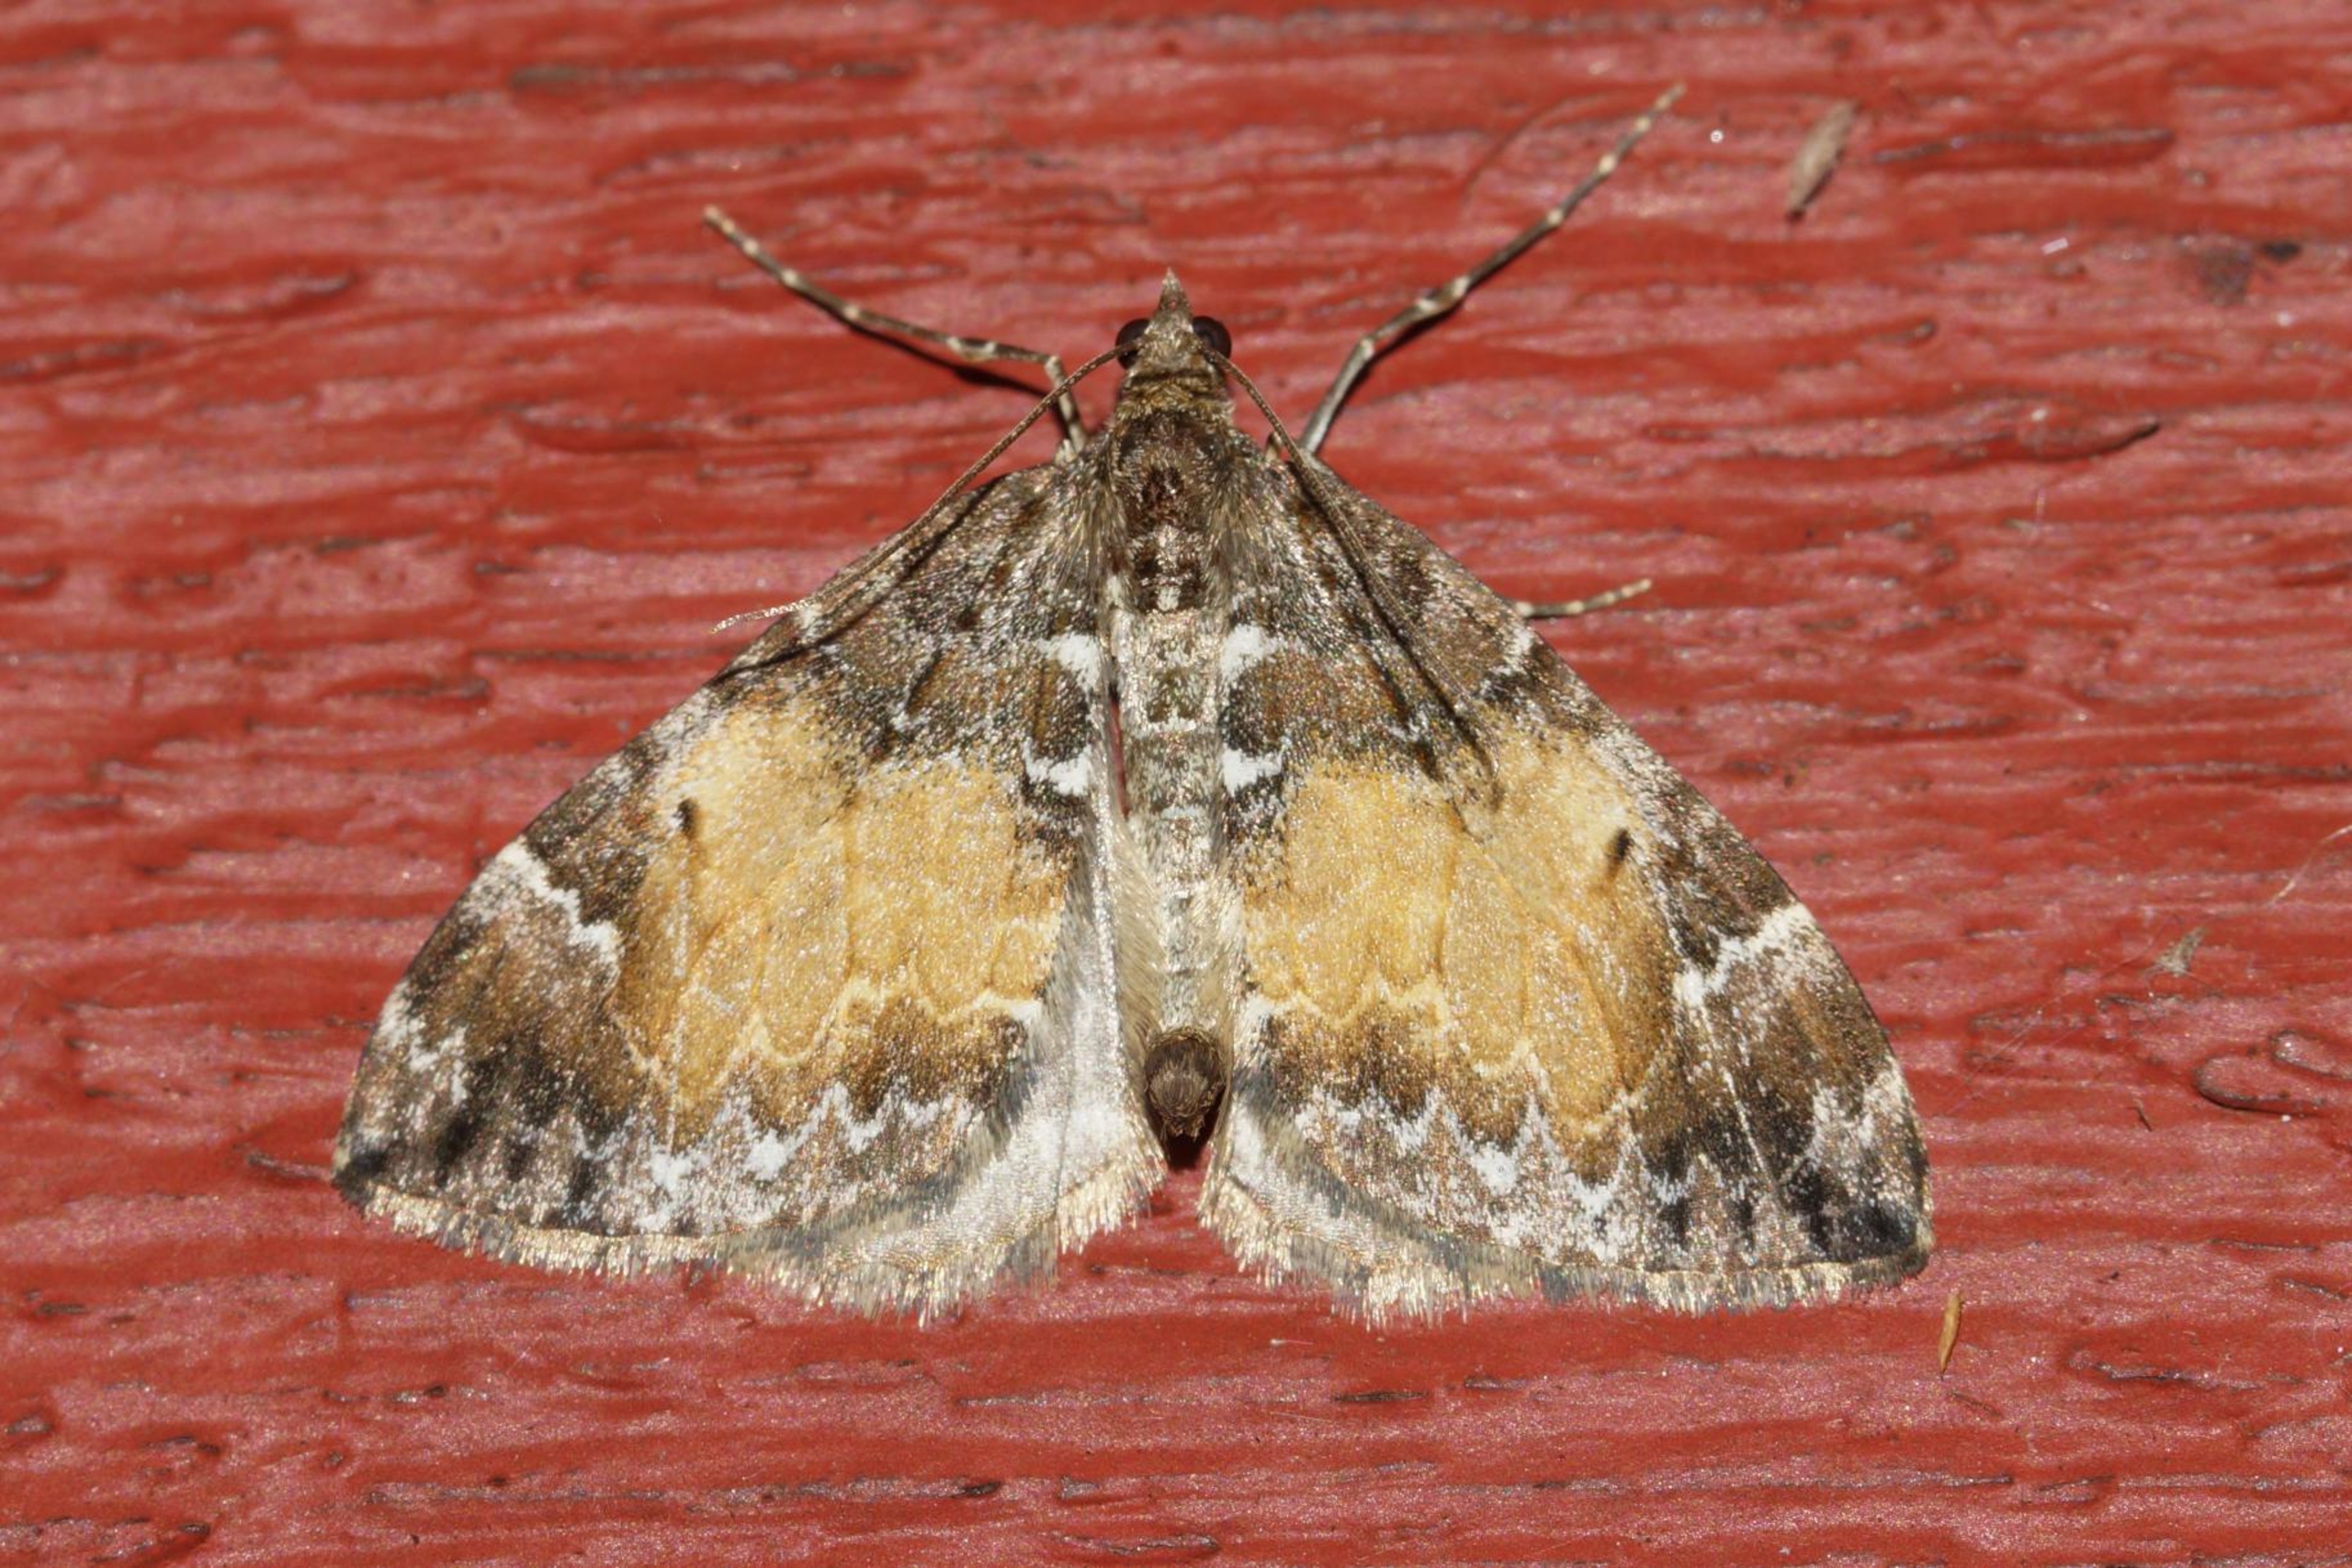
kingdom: Animalia
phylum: Arthropoda
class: Insecta
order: Lepidoptera
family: Geometridae
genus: Dysstroma
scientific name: Dysstroma truncata
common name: Jordbær-bladmåler
